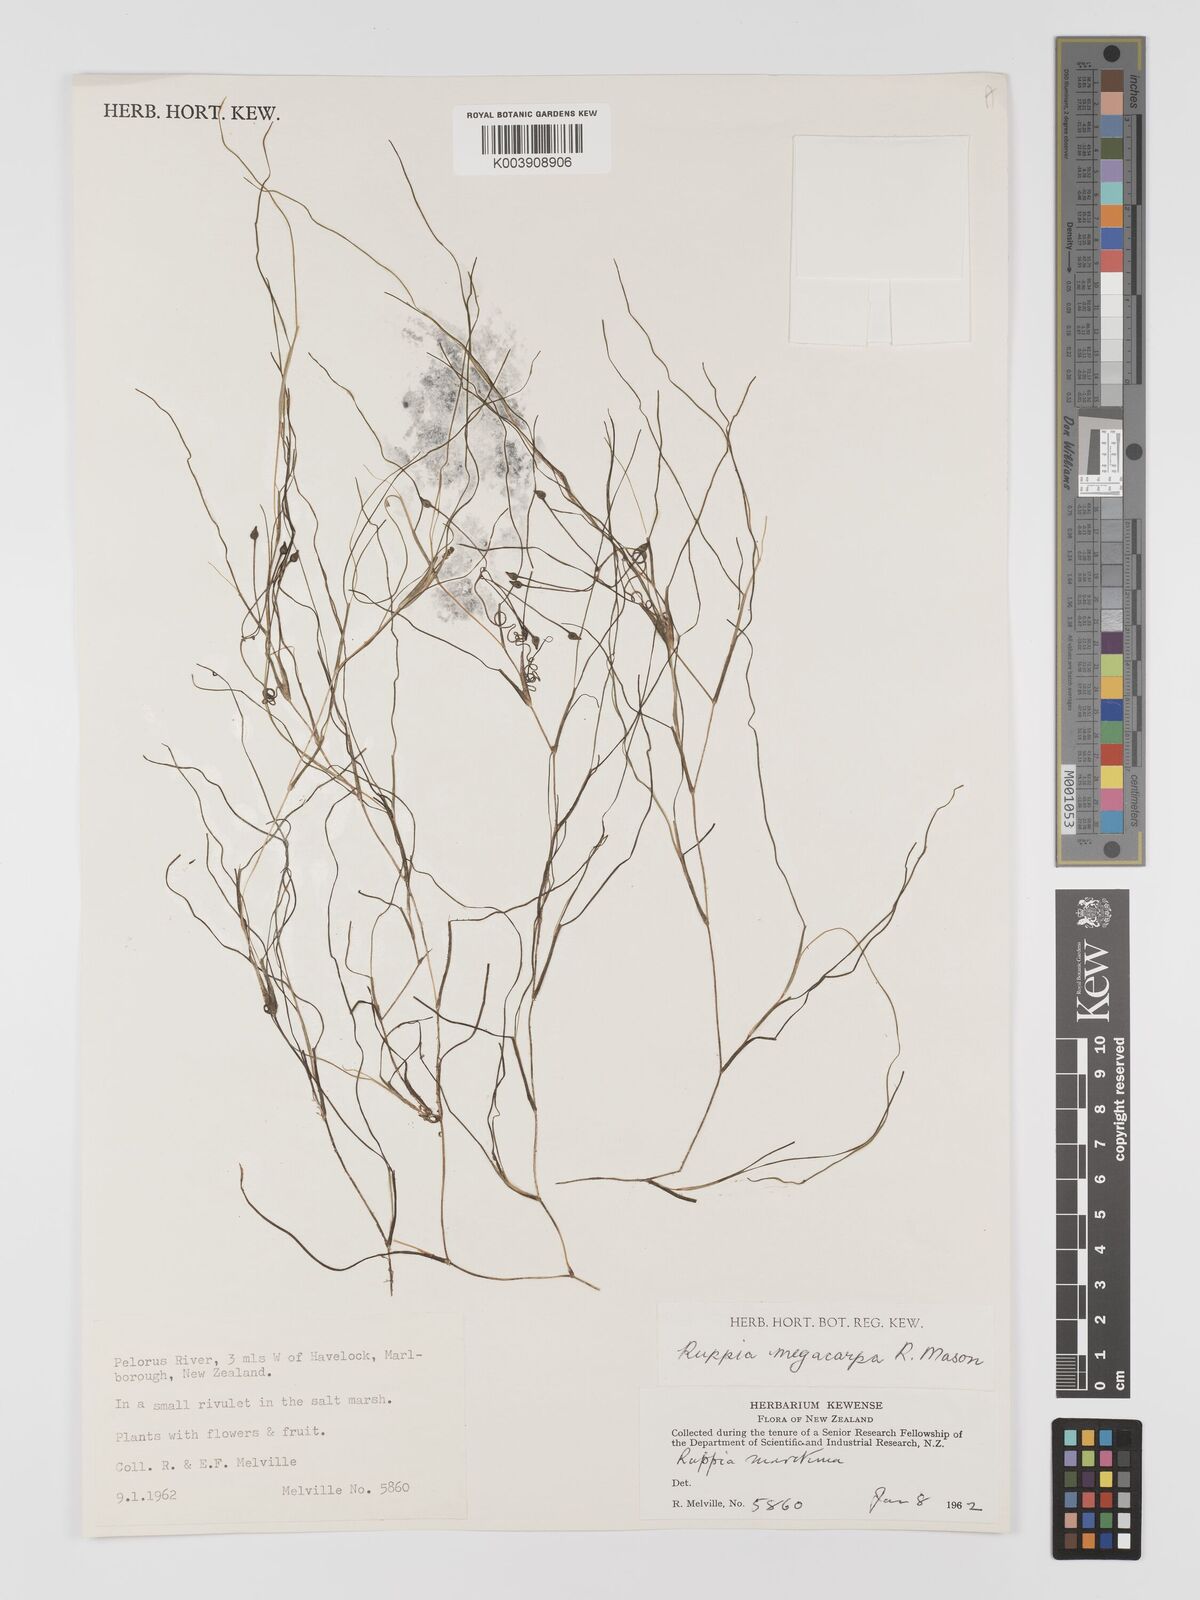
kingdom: Plantae
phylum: Tracheophyta
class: Liliopsida
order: Alismatales
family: Ruppiaceae
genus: Ruppia
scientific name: Ruppia megacarpa
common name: Large-fruit seatassel
